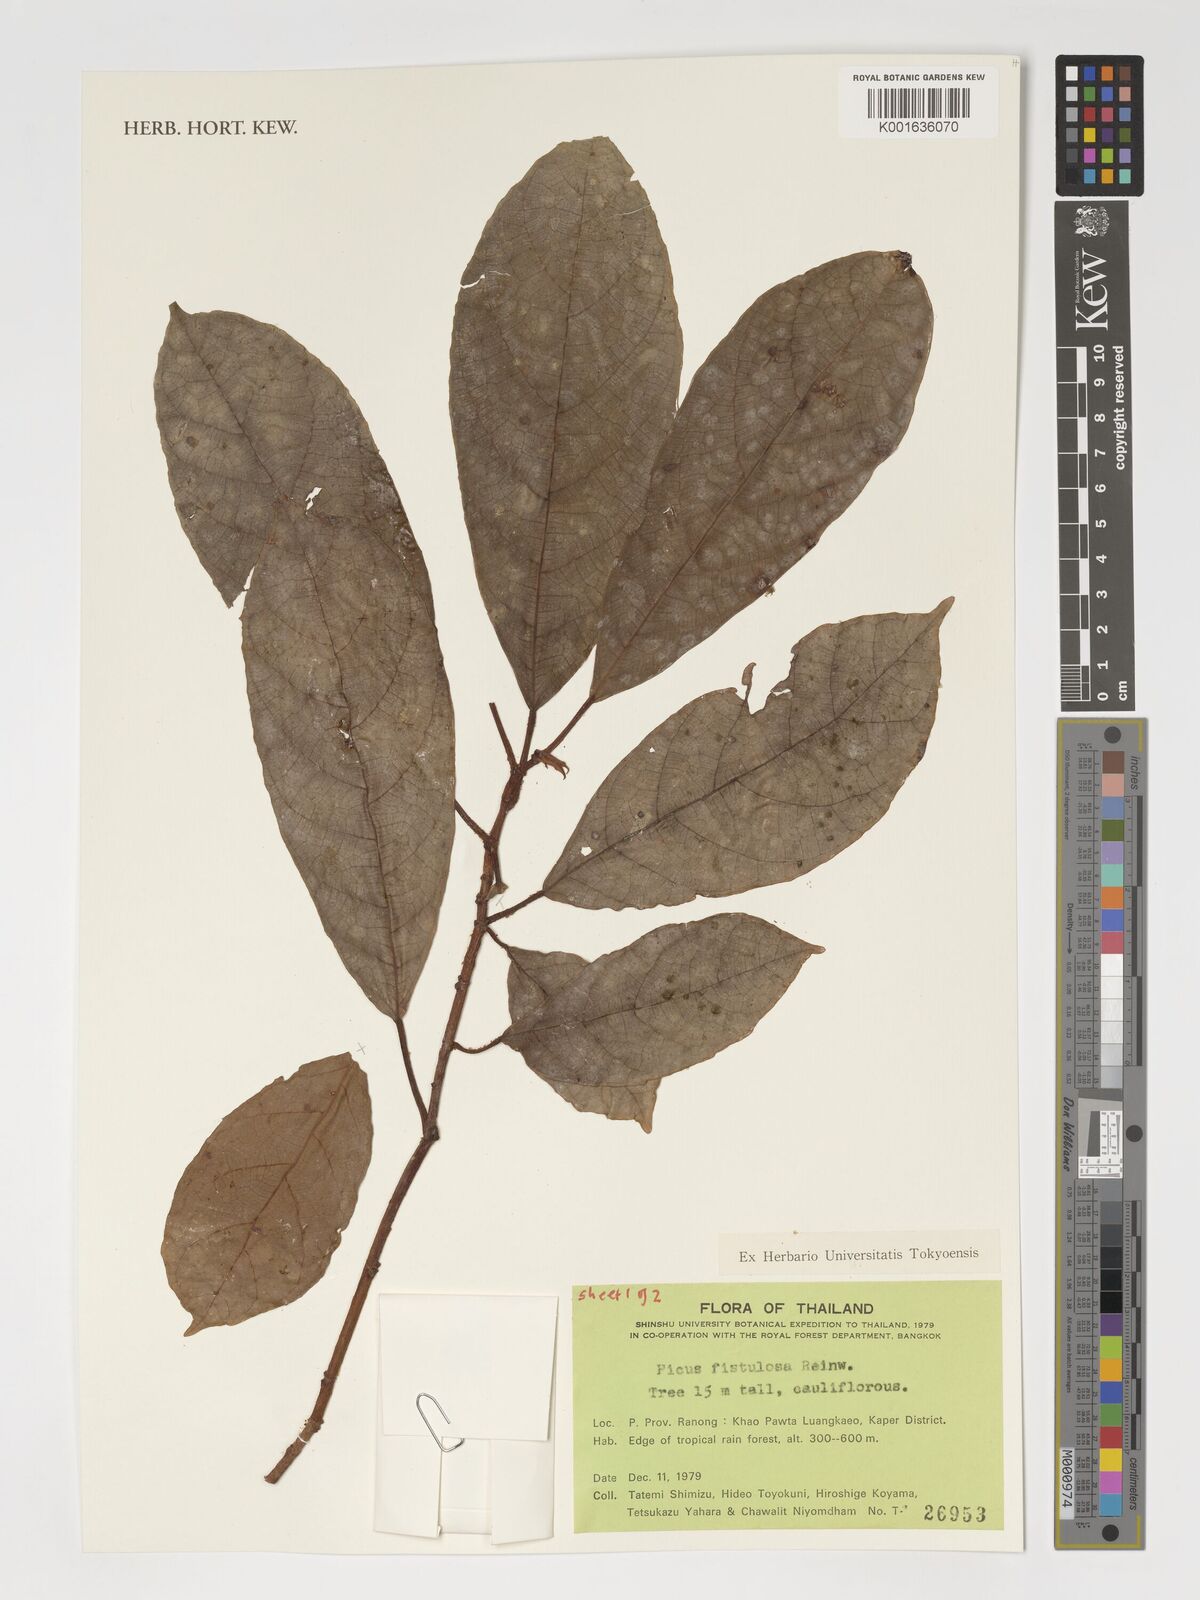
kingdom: Plantae
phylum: Tracheophyta
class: Magnoliopsida
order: Rosales
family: Moraceae
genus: Ficus
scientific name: Ficus fistulosa
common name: Figs
